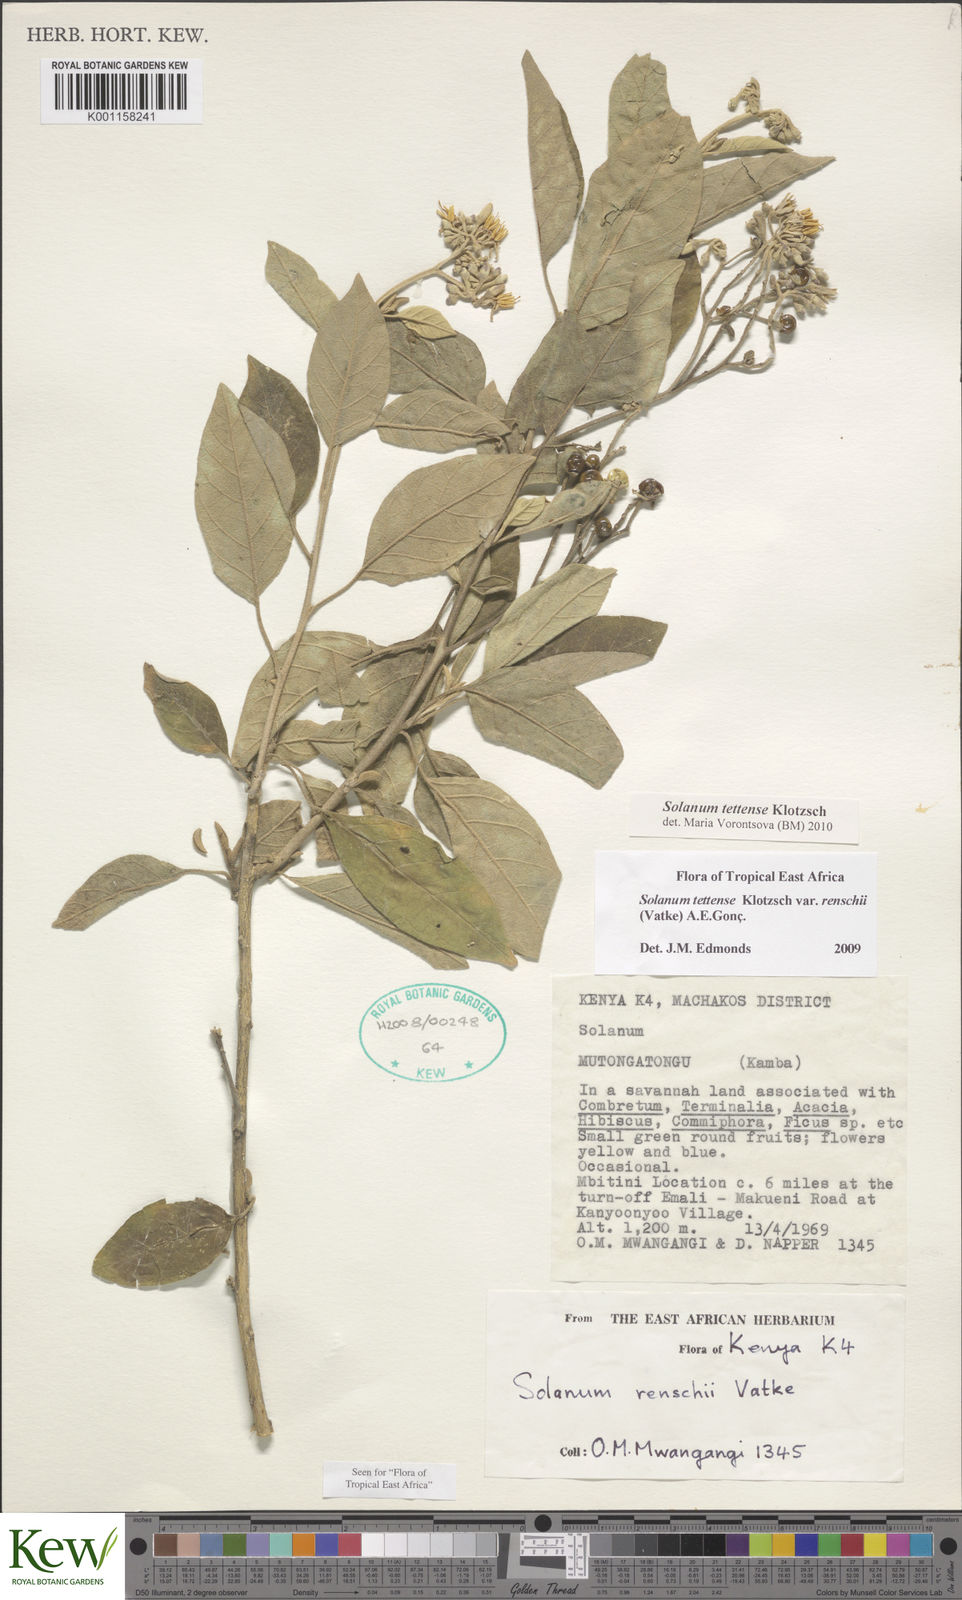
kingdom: Plantae
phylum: Tracheophyta
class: Magnoliopsida
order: Solanales
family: Solanaceae
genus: Solanum
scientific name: Solanum tettense
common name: Mozambique bitter apple
